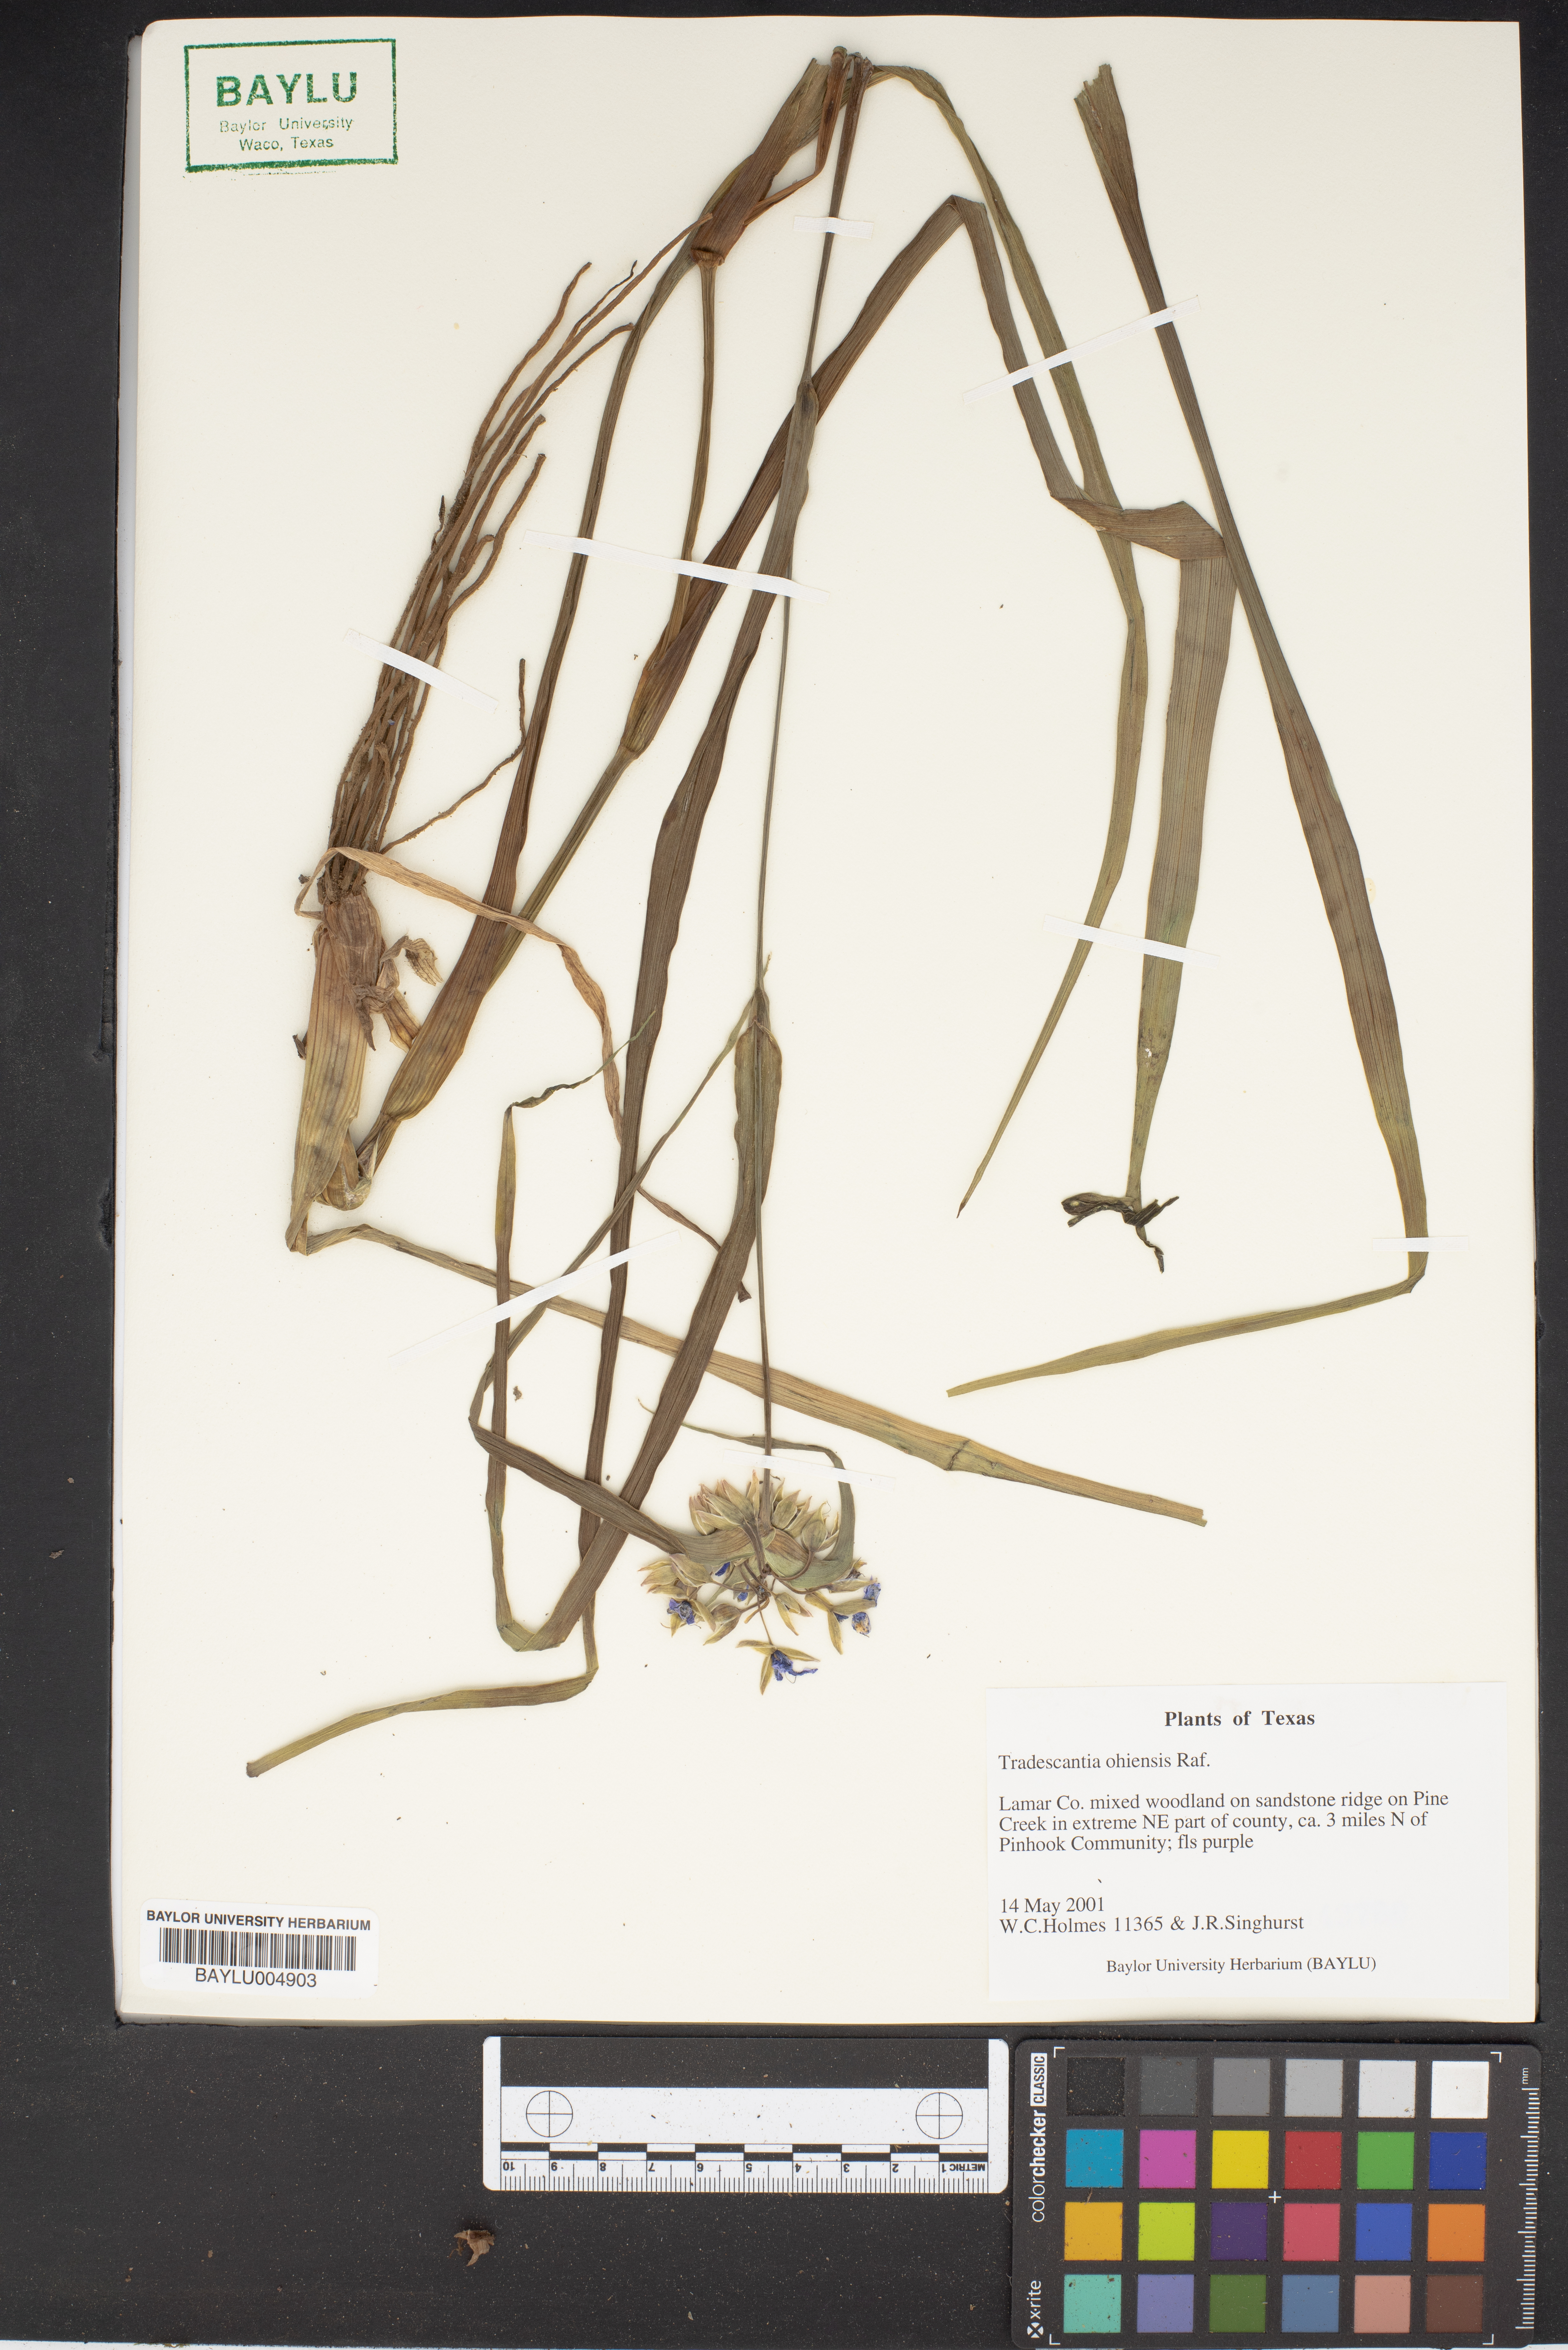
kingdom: Plantae
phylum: Tracheophyta
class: Liliopsida
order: Commelinales
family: Commelinaceae
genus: Tradescantia
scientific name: Tradescantia ohiensis
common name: Ohio spiderwort
